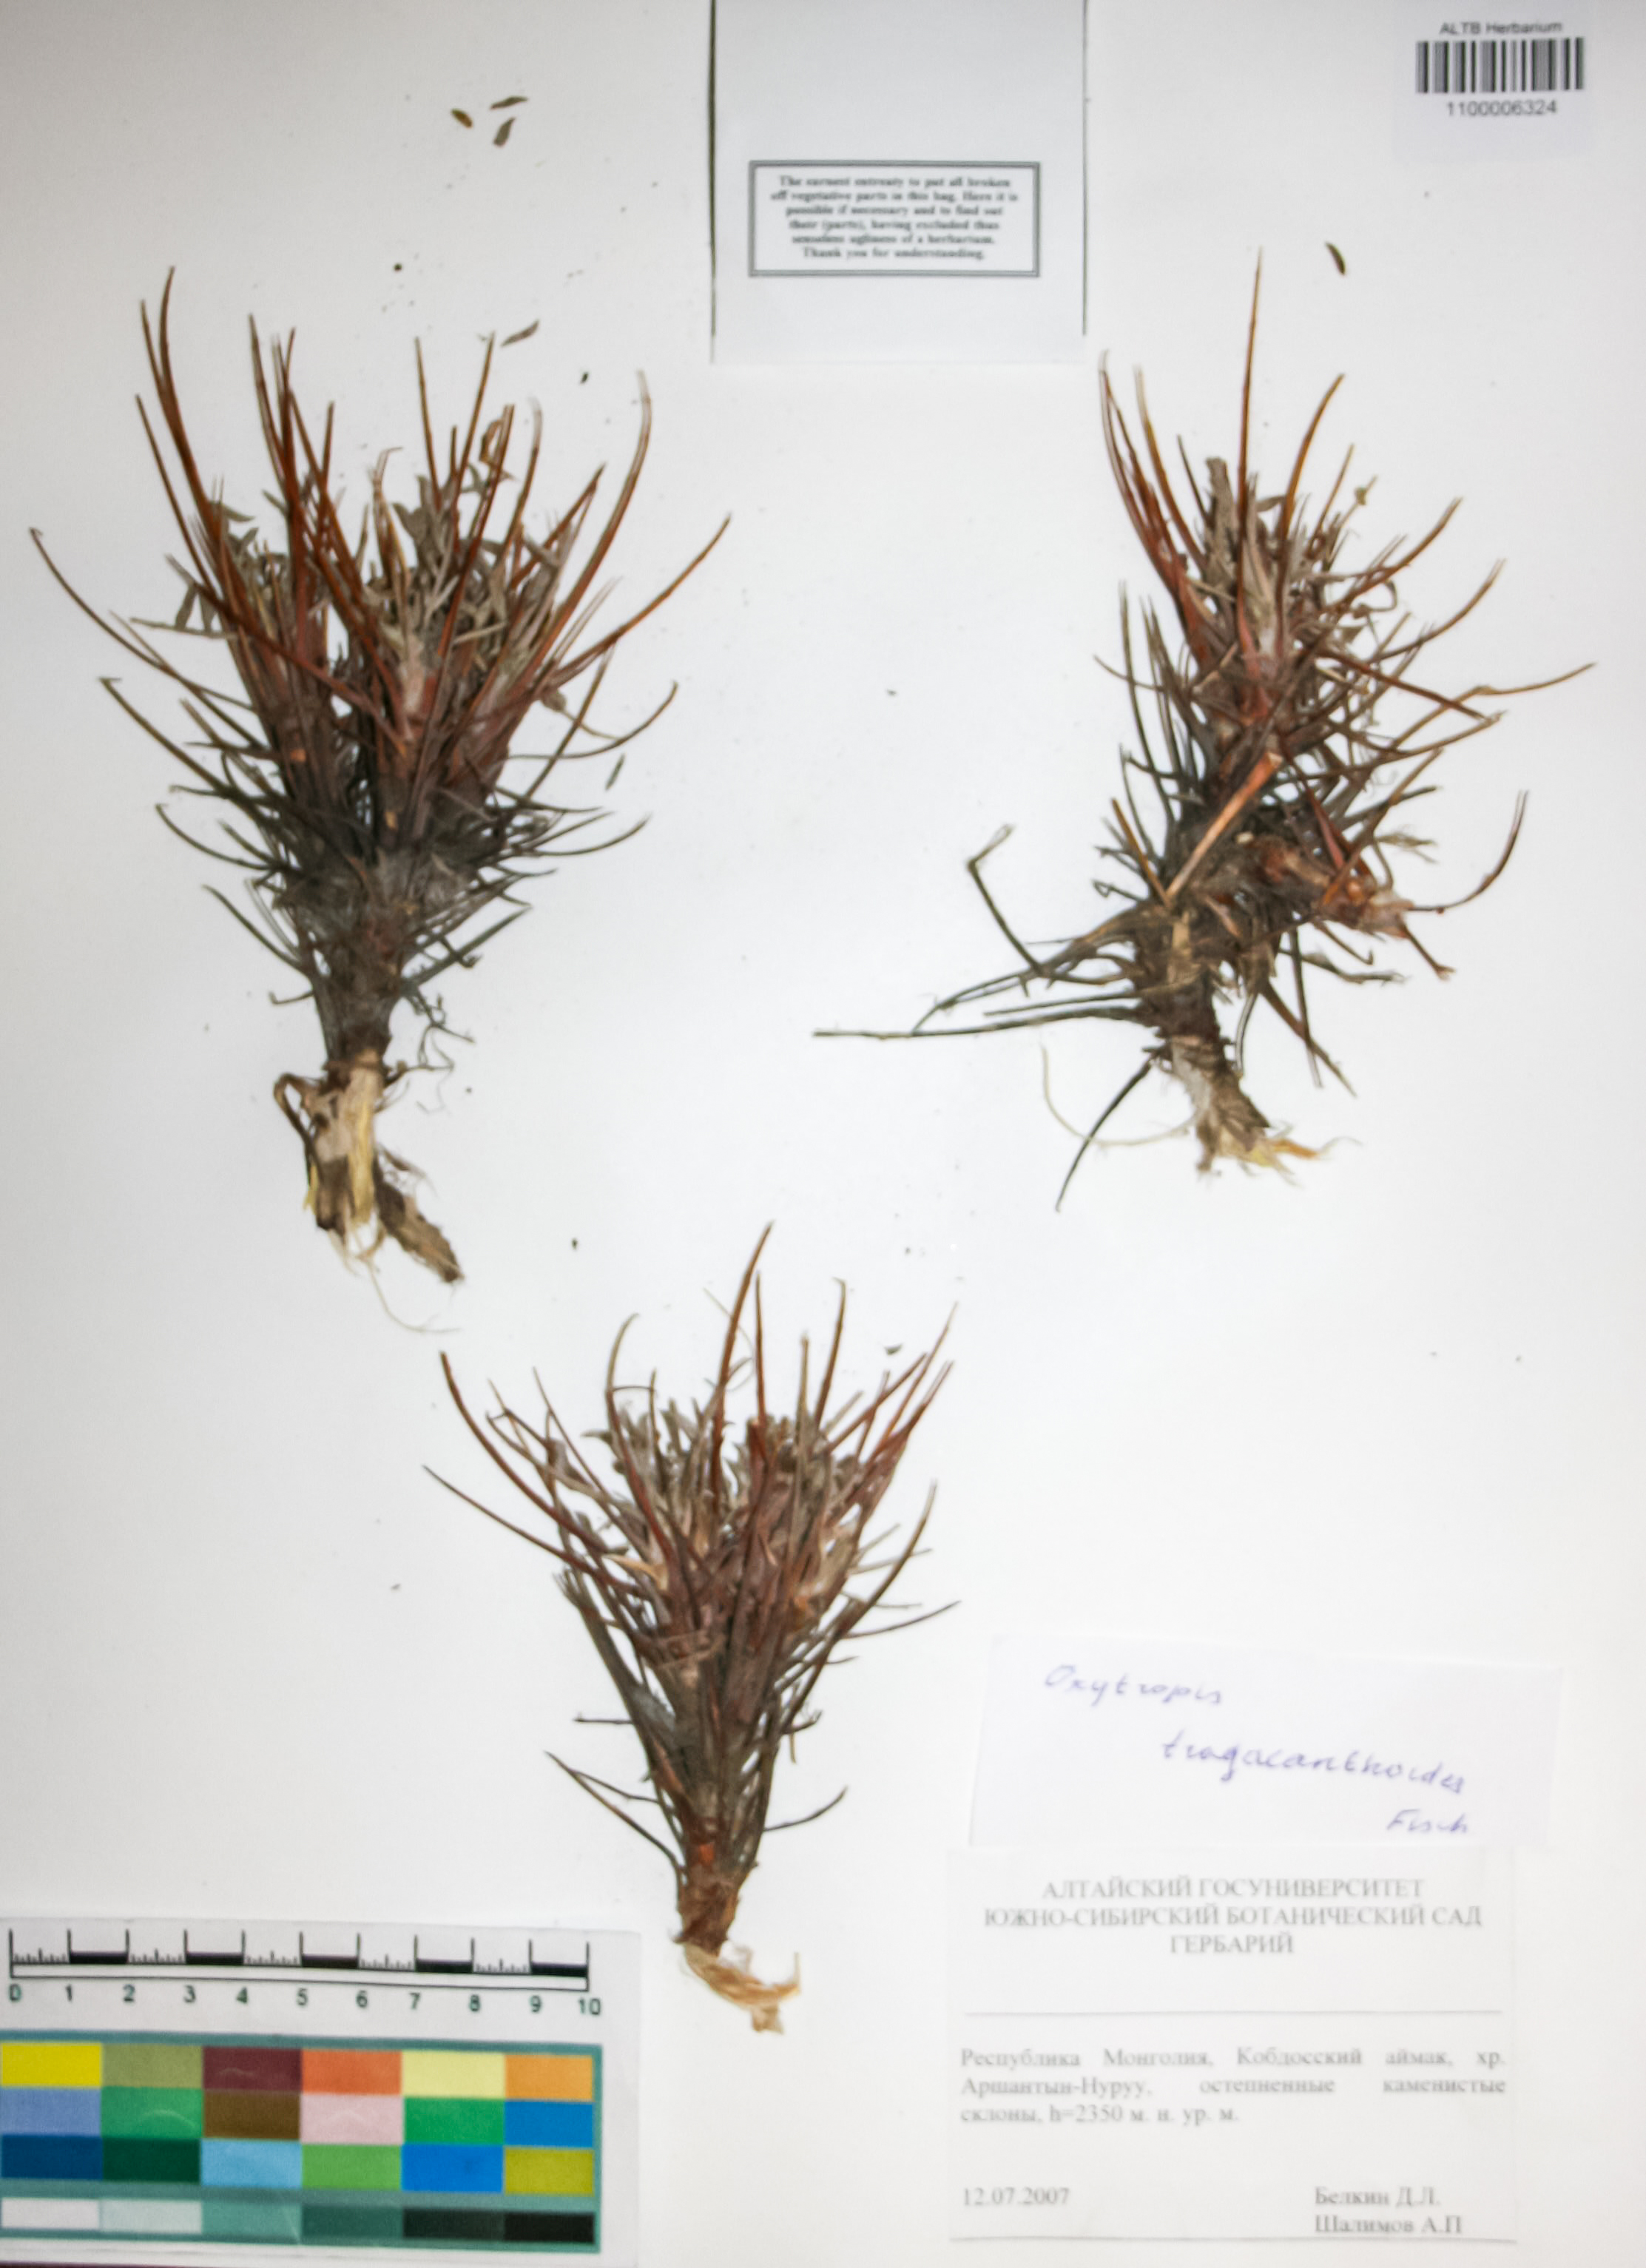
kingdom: Plantae
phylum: Tracheophyta
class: Magnoliopsida
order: Fabales
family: Fabaceae
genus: Oxytropis
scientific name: Oxytropis tragacanthoides
